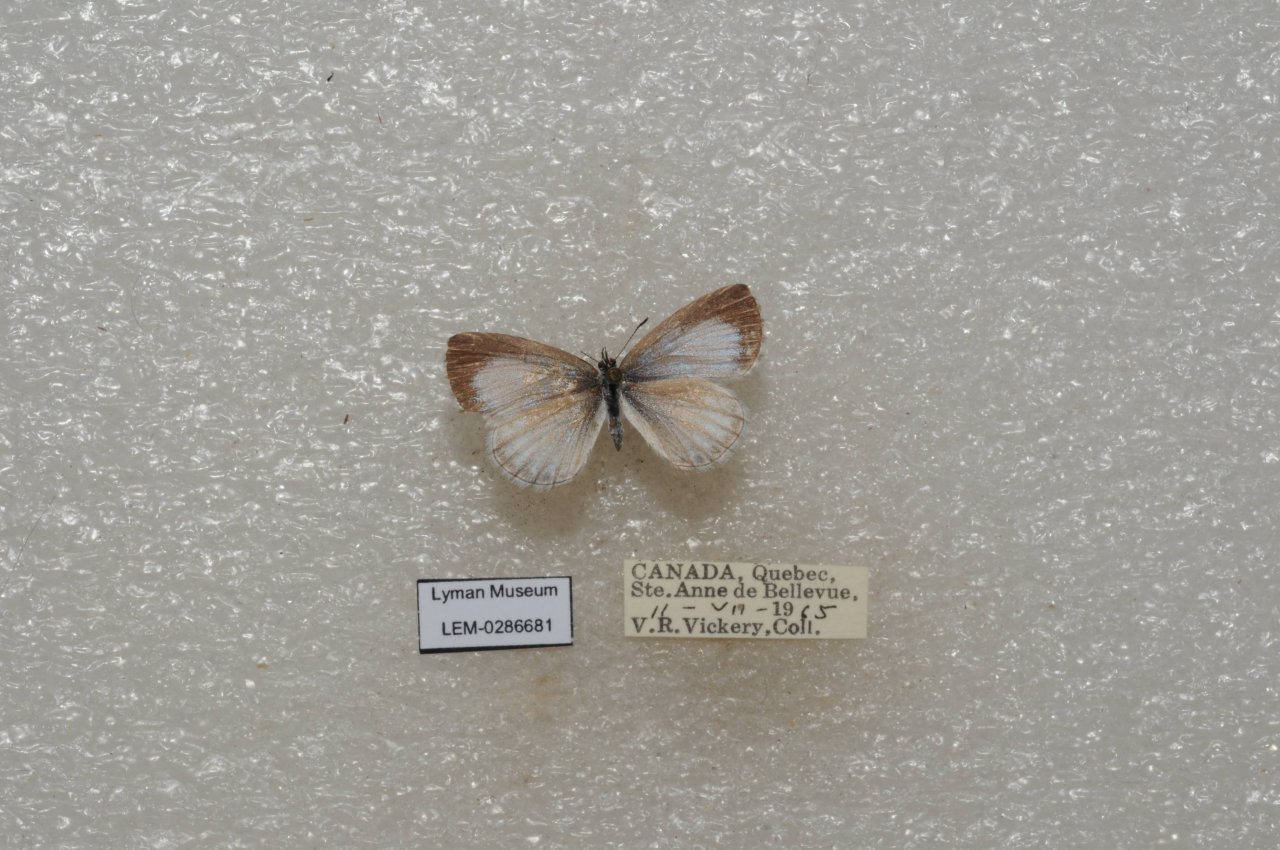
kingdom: Animalia
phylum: Arthropoda
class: Insecta
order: Lepidoptera
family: Lycaenidae
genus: Celastrina
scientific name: Celastrina lucia
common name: Northern Spring Azure
